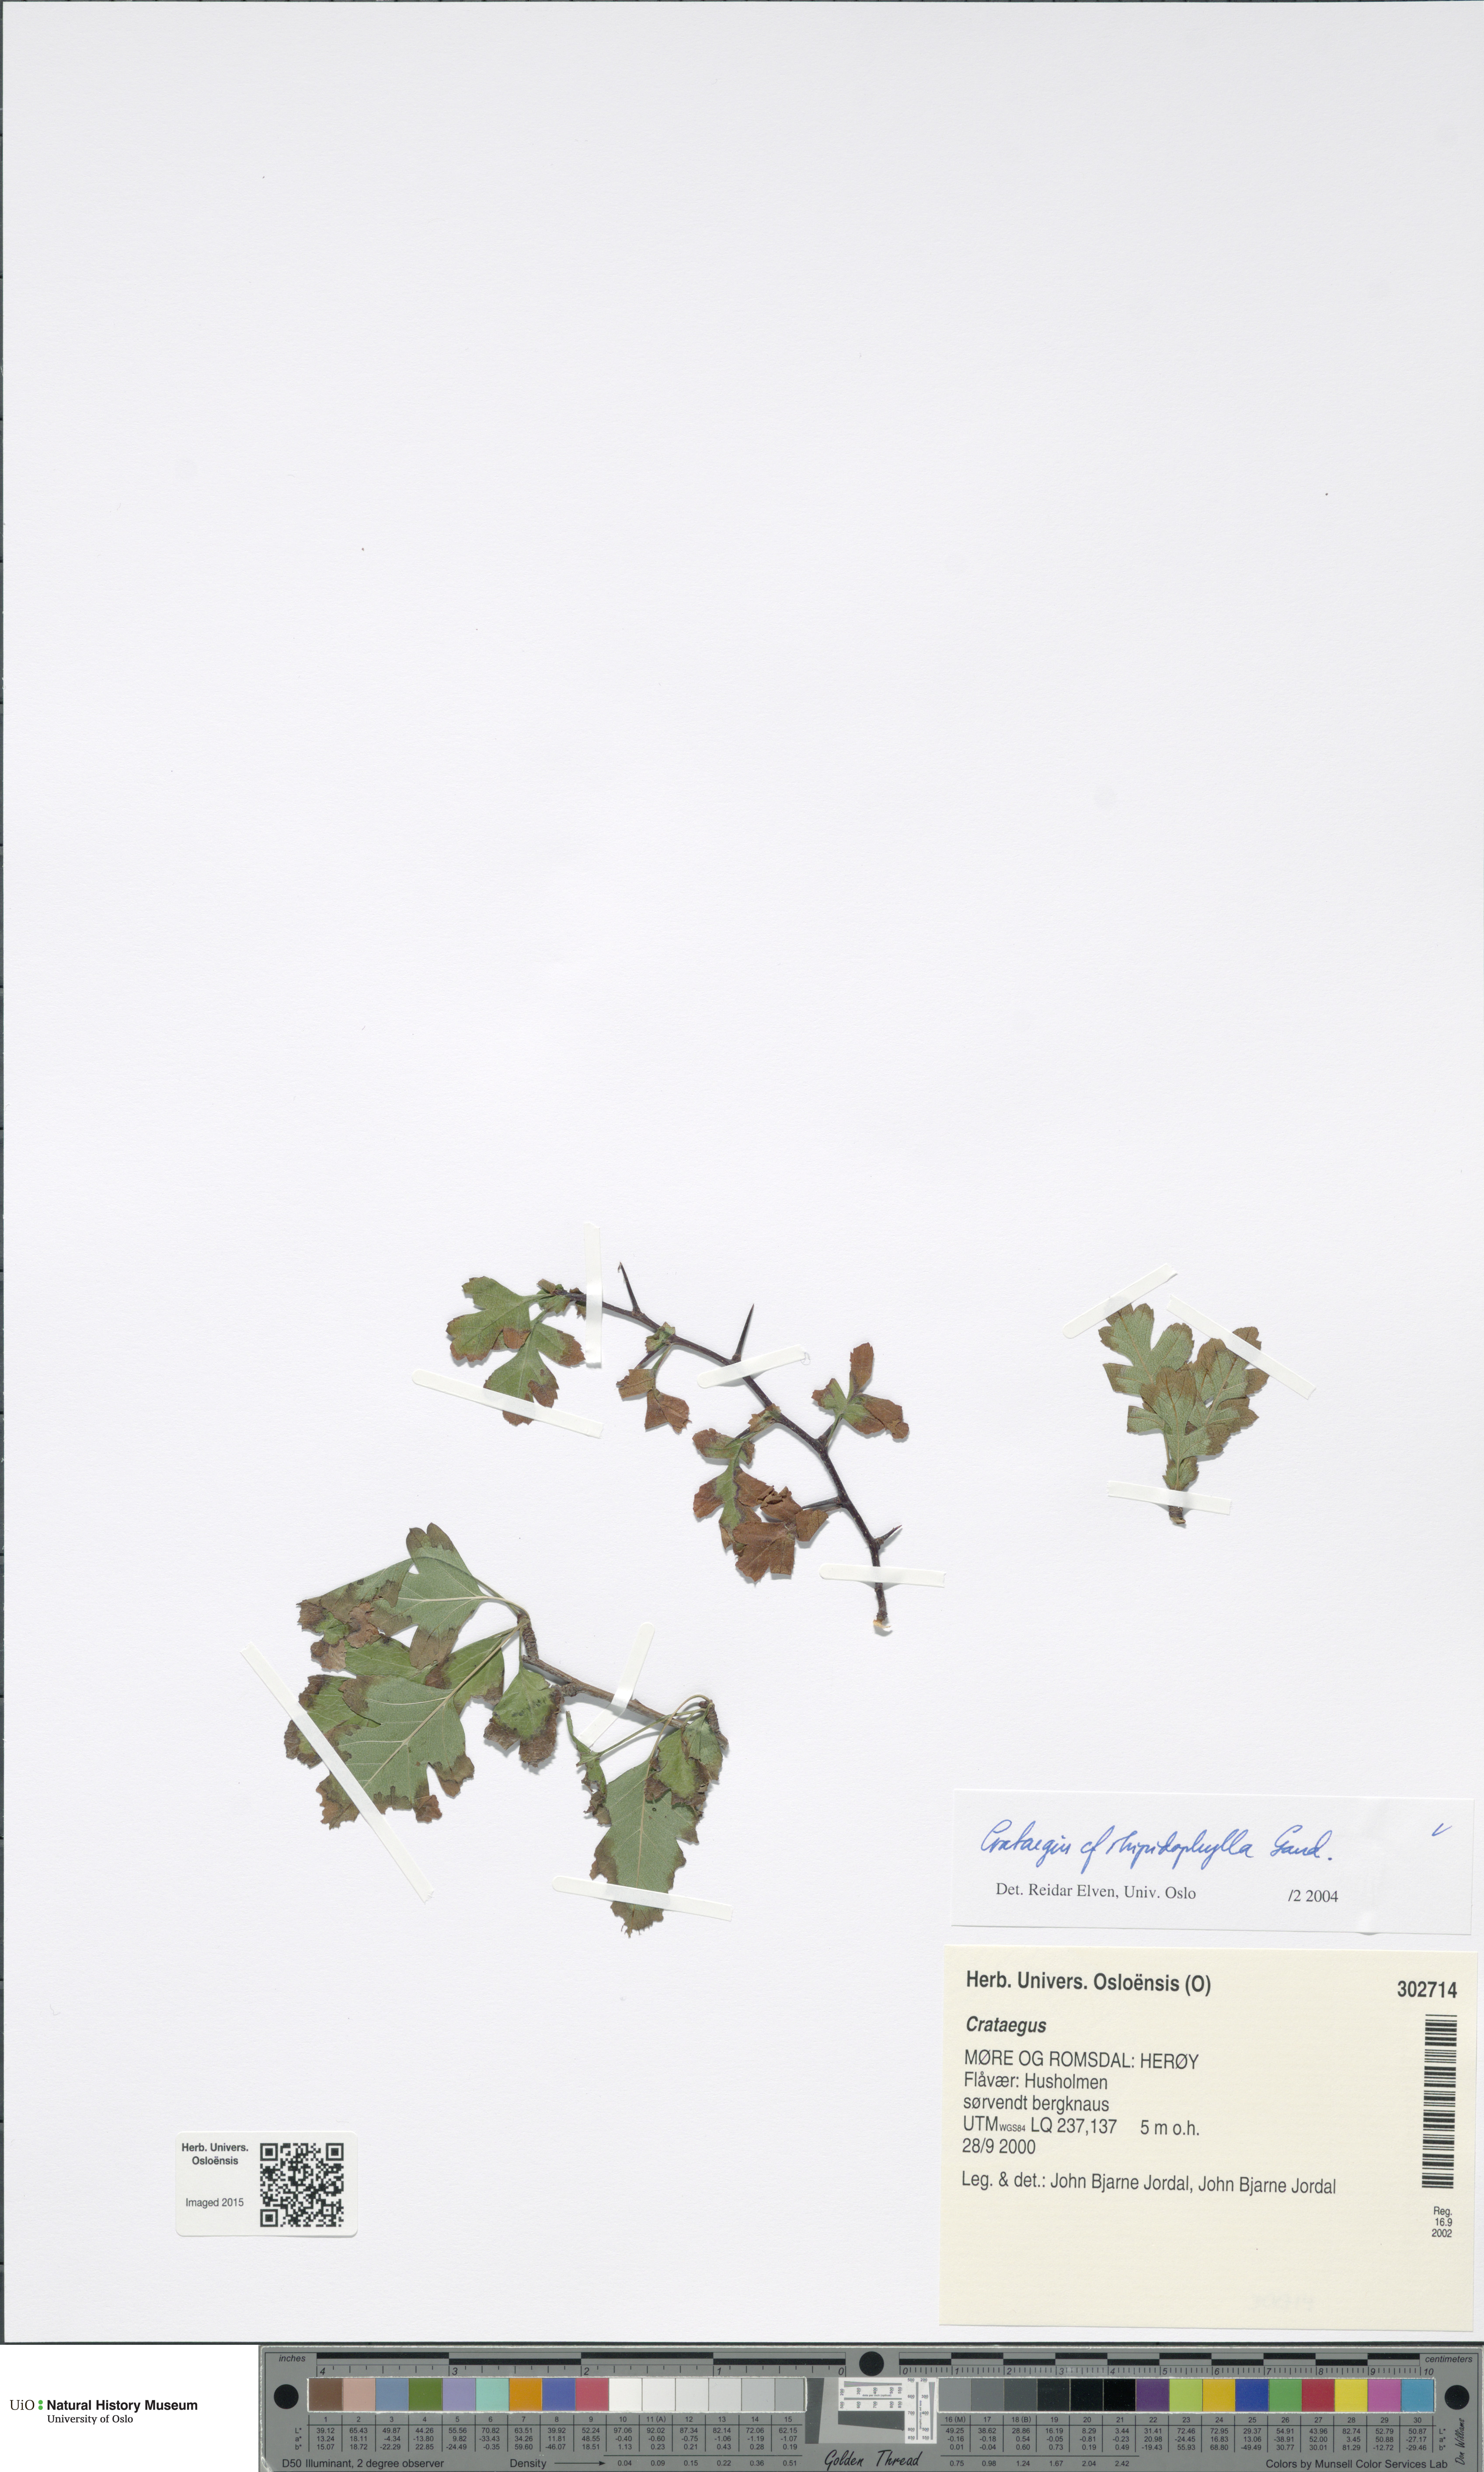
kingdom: Plantae
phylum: Tracheophyta
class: Magnoliopsida
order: Rosales
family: Rosaceae
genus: Crataegus
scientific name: Crataegus rhipidophylla
